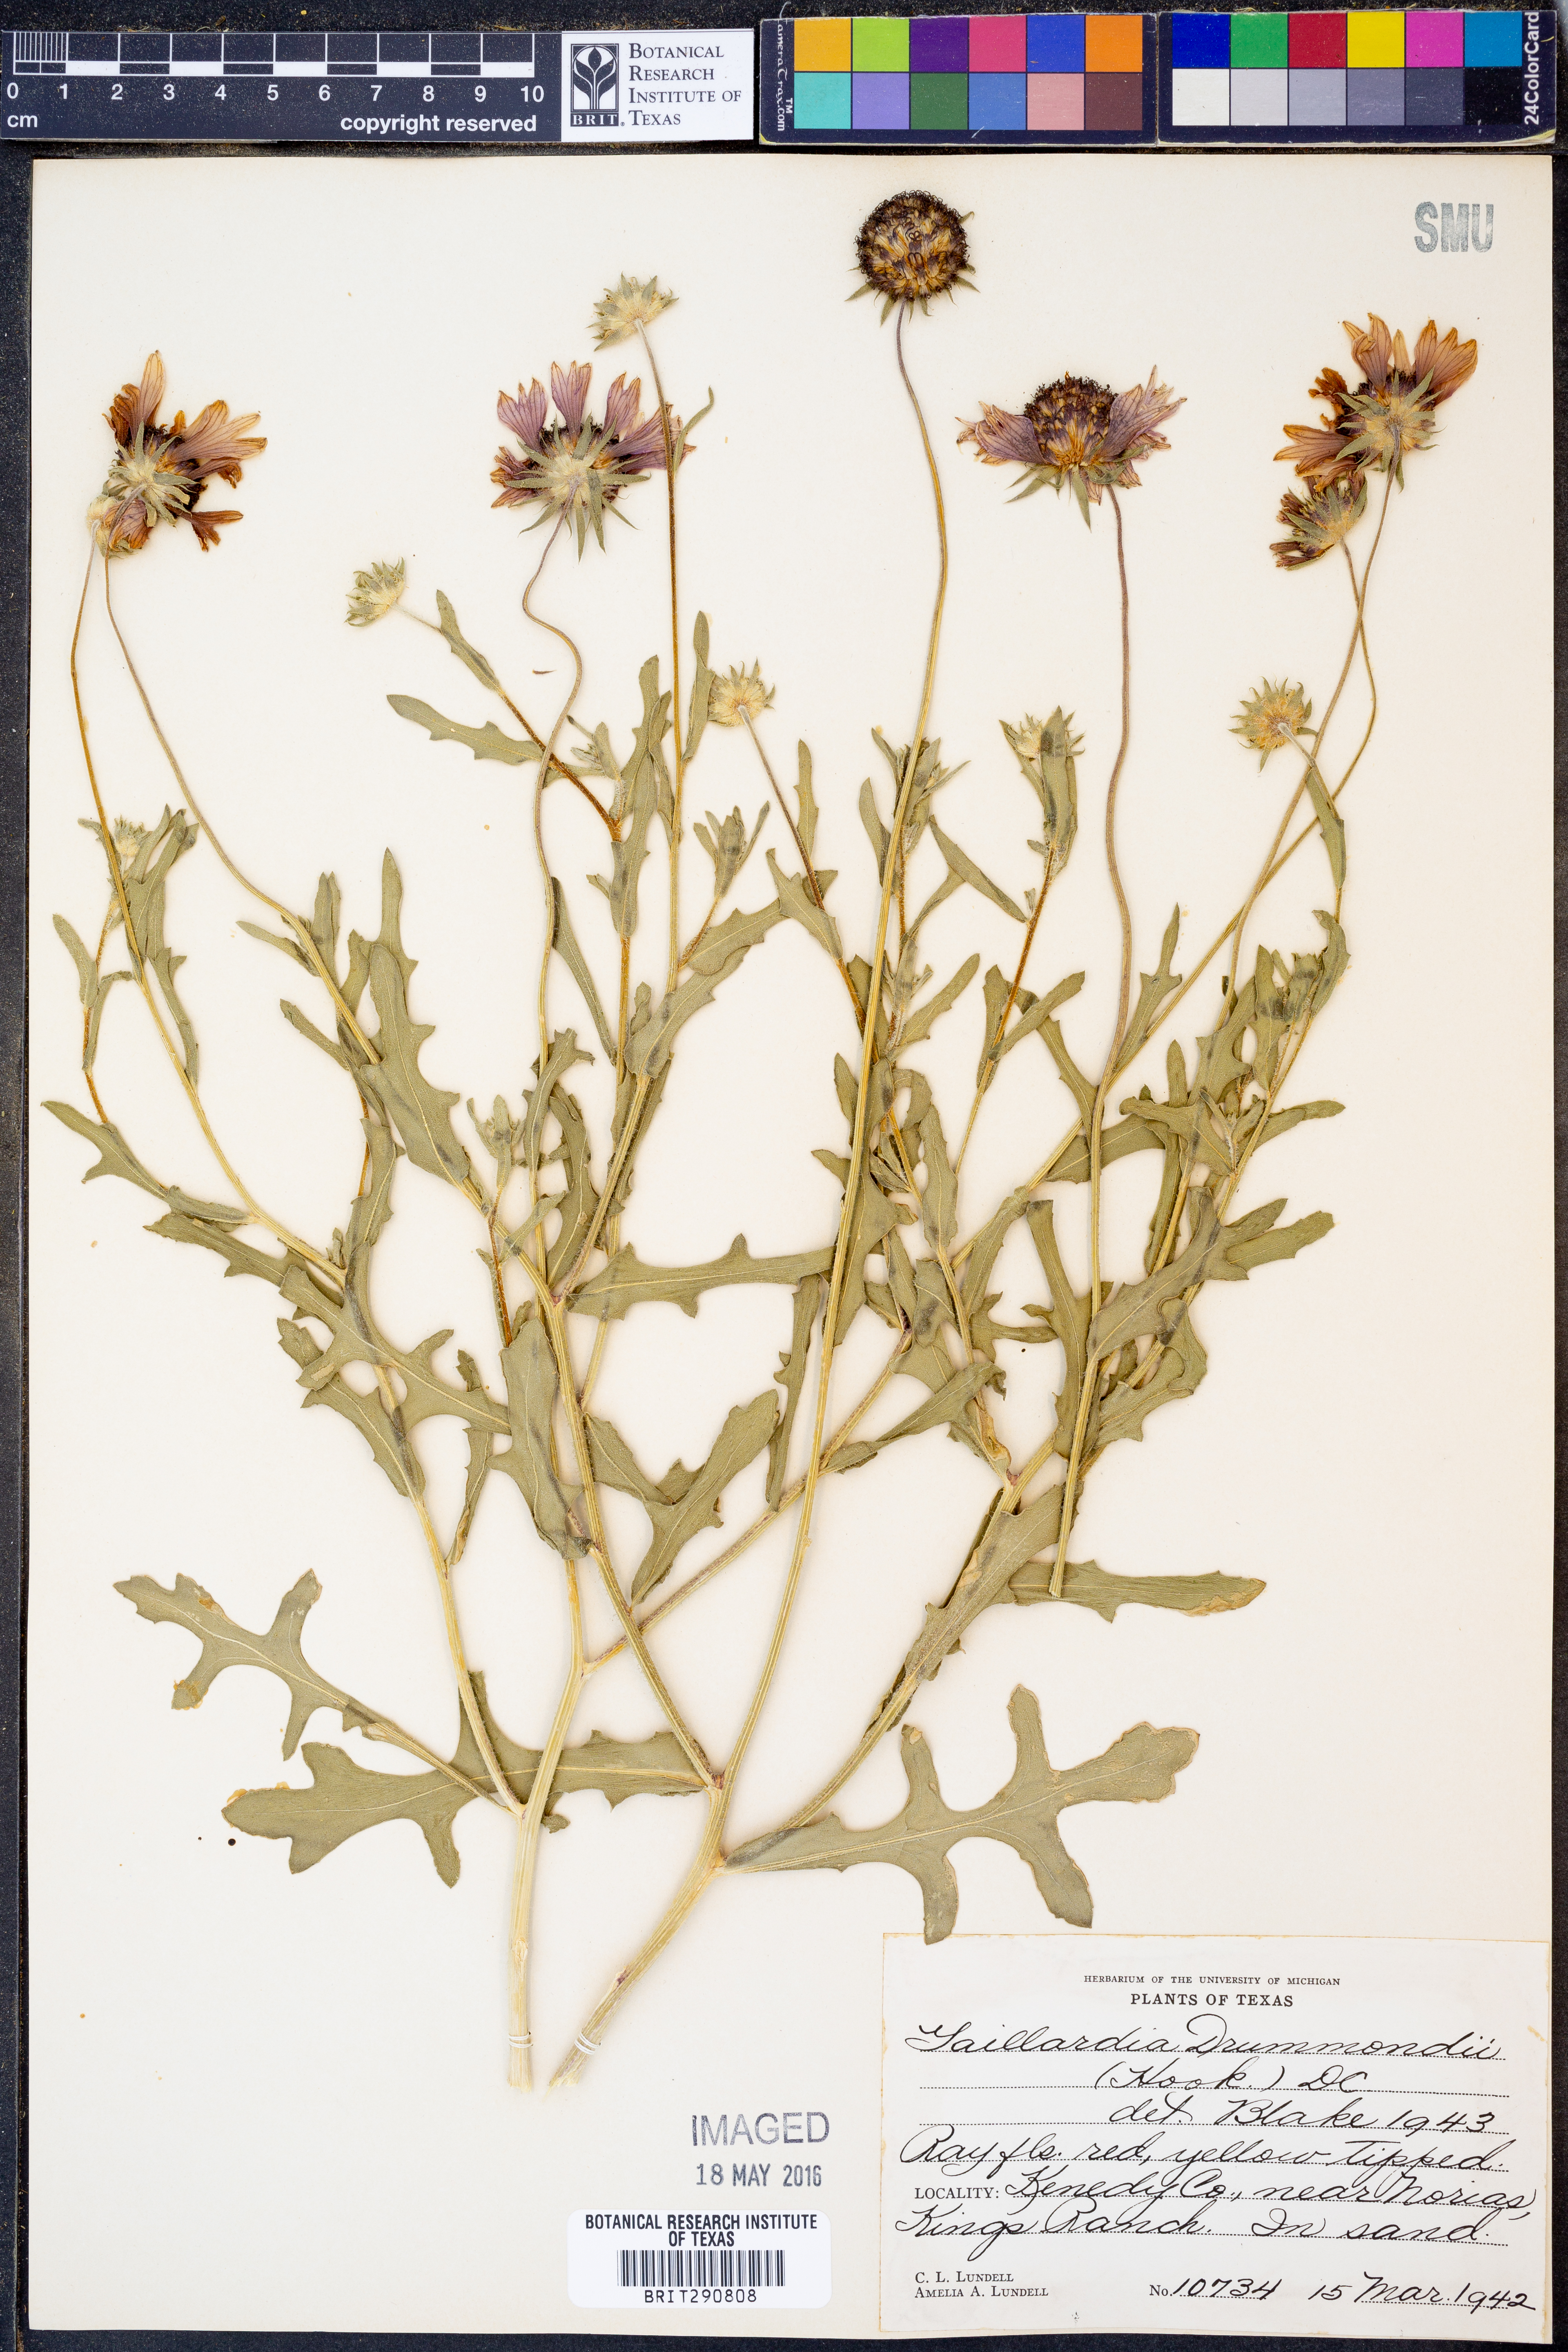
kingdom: Plantae
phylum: Tracheophyta
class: Magnoliopsida
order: Asterales
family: Asteraceae
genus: Gaillardia
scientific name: Gaillardia pulchella
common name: Firewheel
